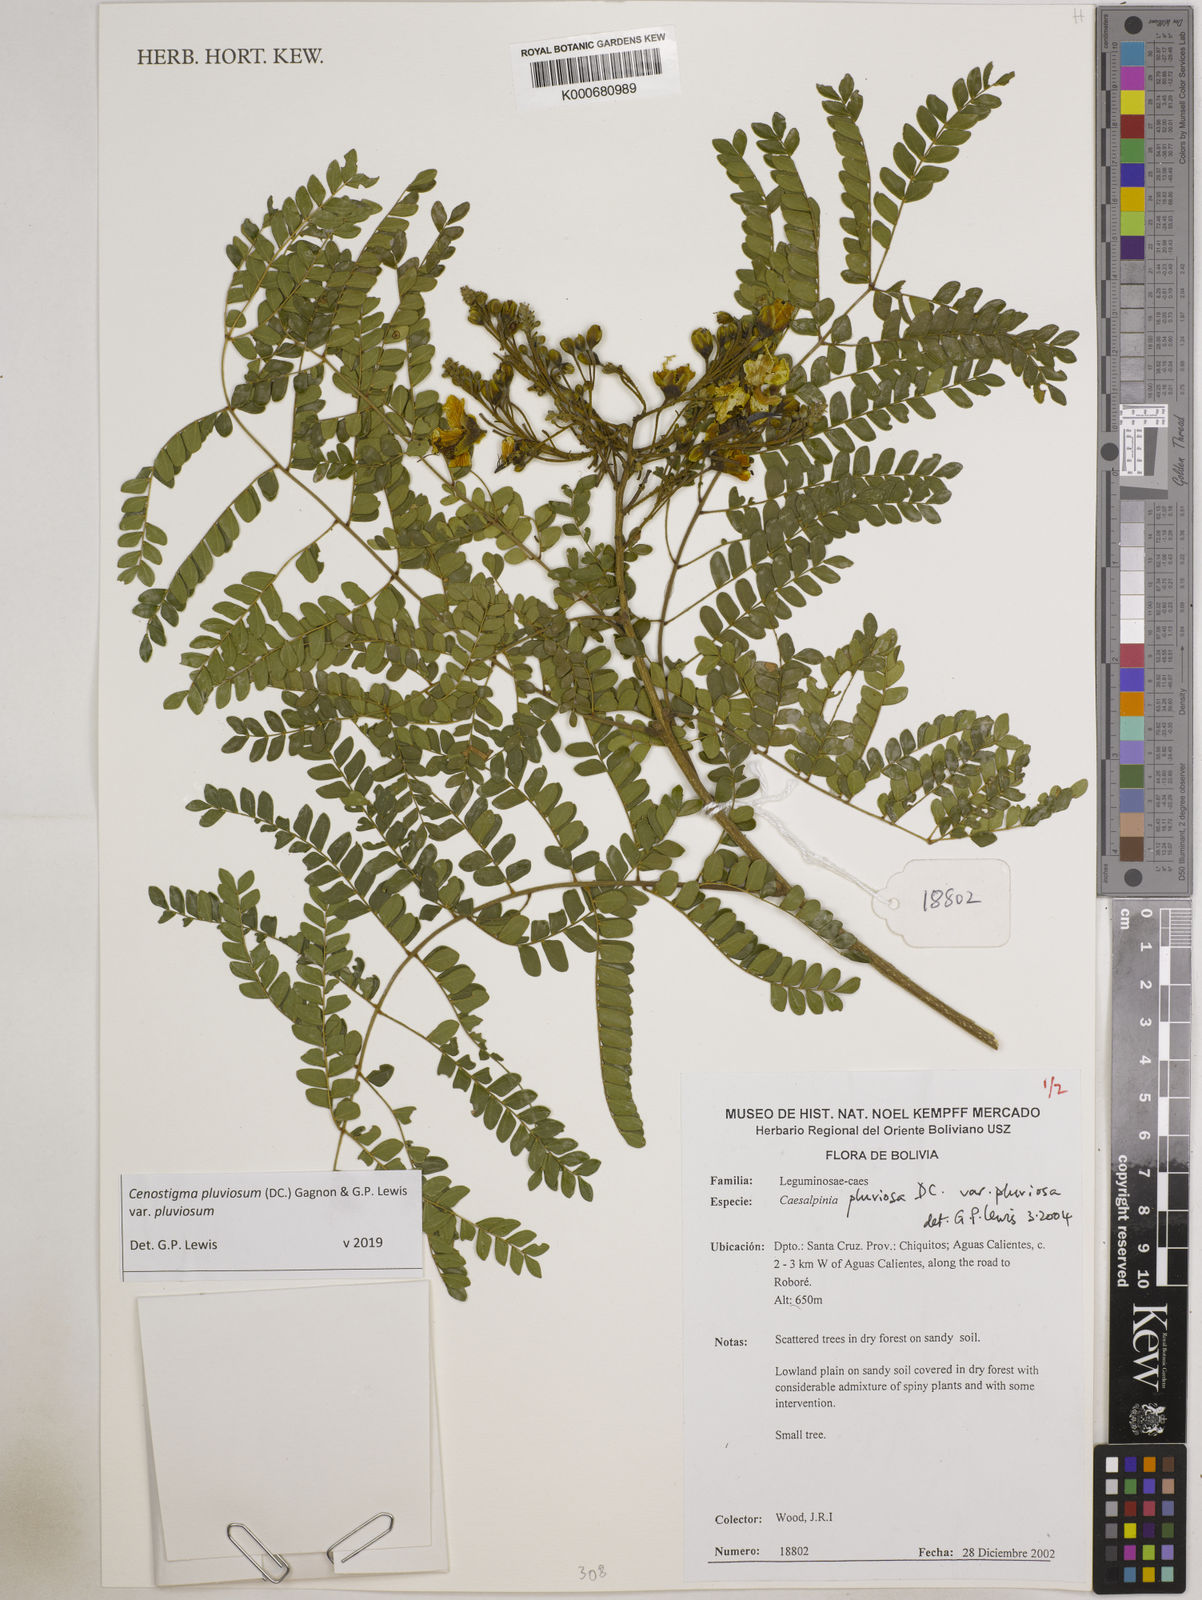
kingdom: Plantae
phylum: Tracheophyta
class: Magnoliopsida
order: Fabales
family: Fabaceae
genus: Cenostigma
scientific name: Cenostigma pluviosum
